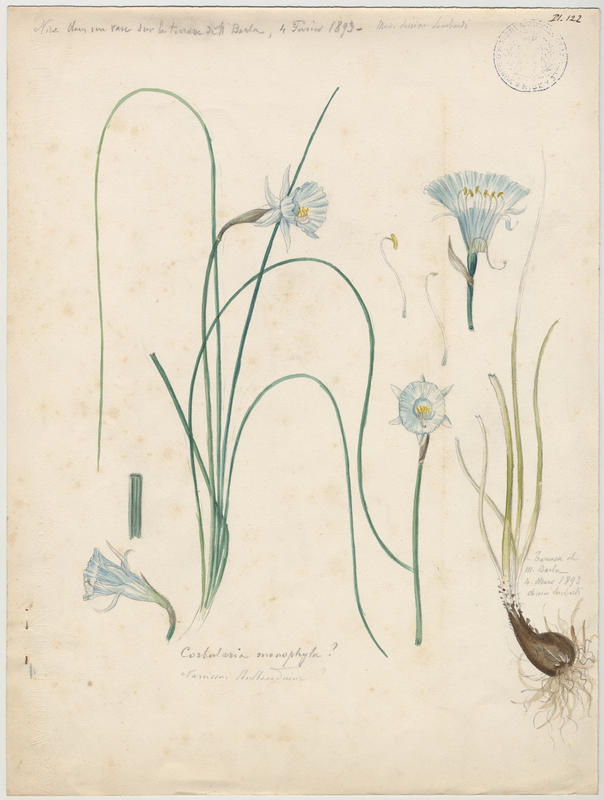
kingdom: Plantae
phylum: Tracheophyta
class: Liliopsida
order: Asparagales
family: Amaryllidaceae
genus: Narcissus
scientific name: Narcissus bulbocodium
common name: Hoop-petticoat daffodil
